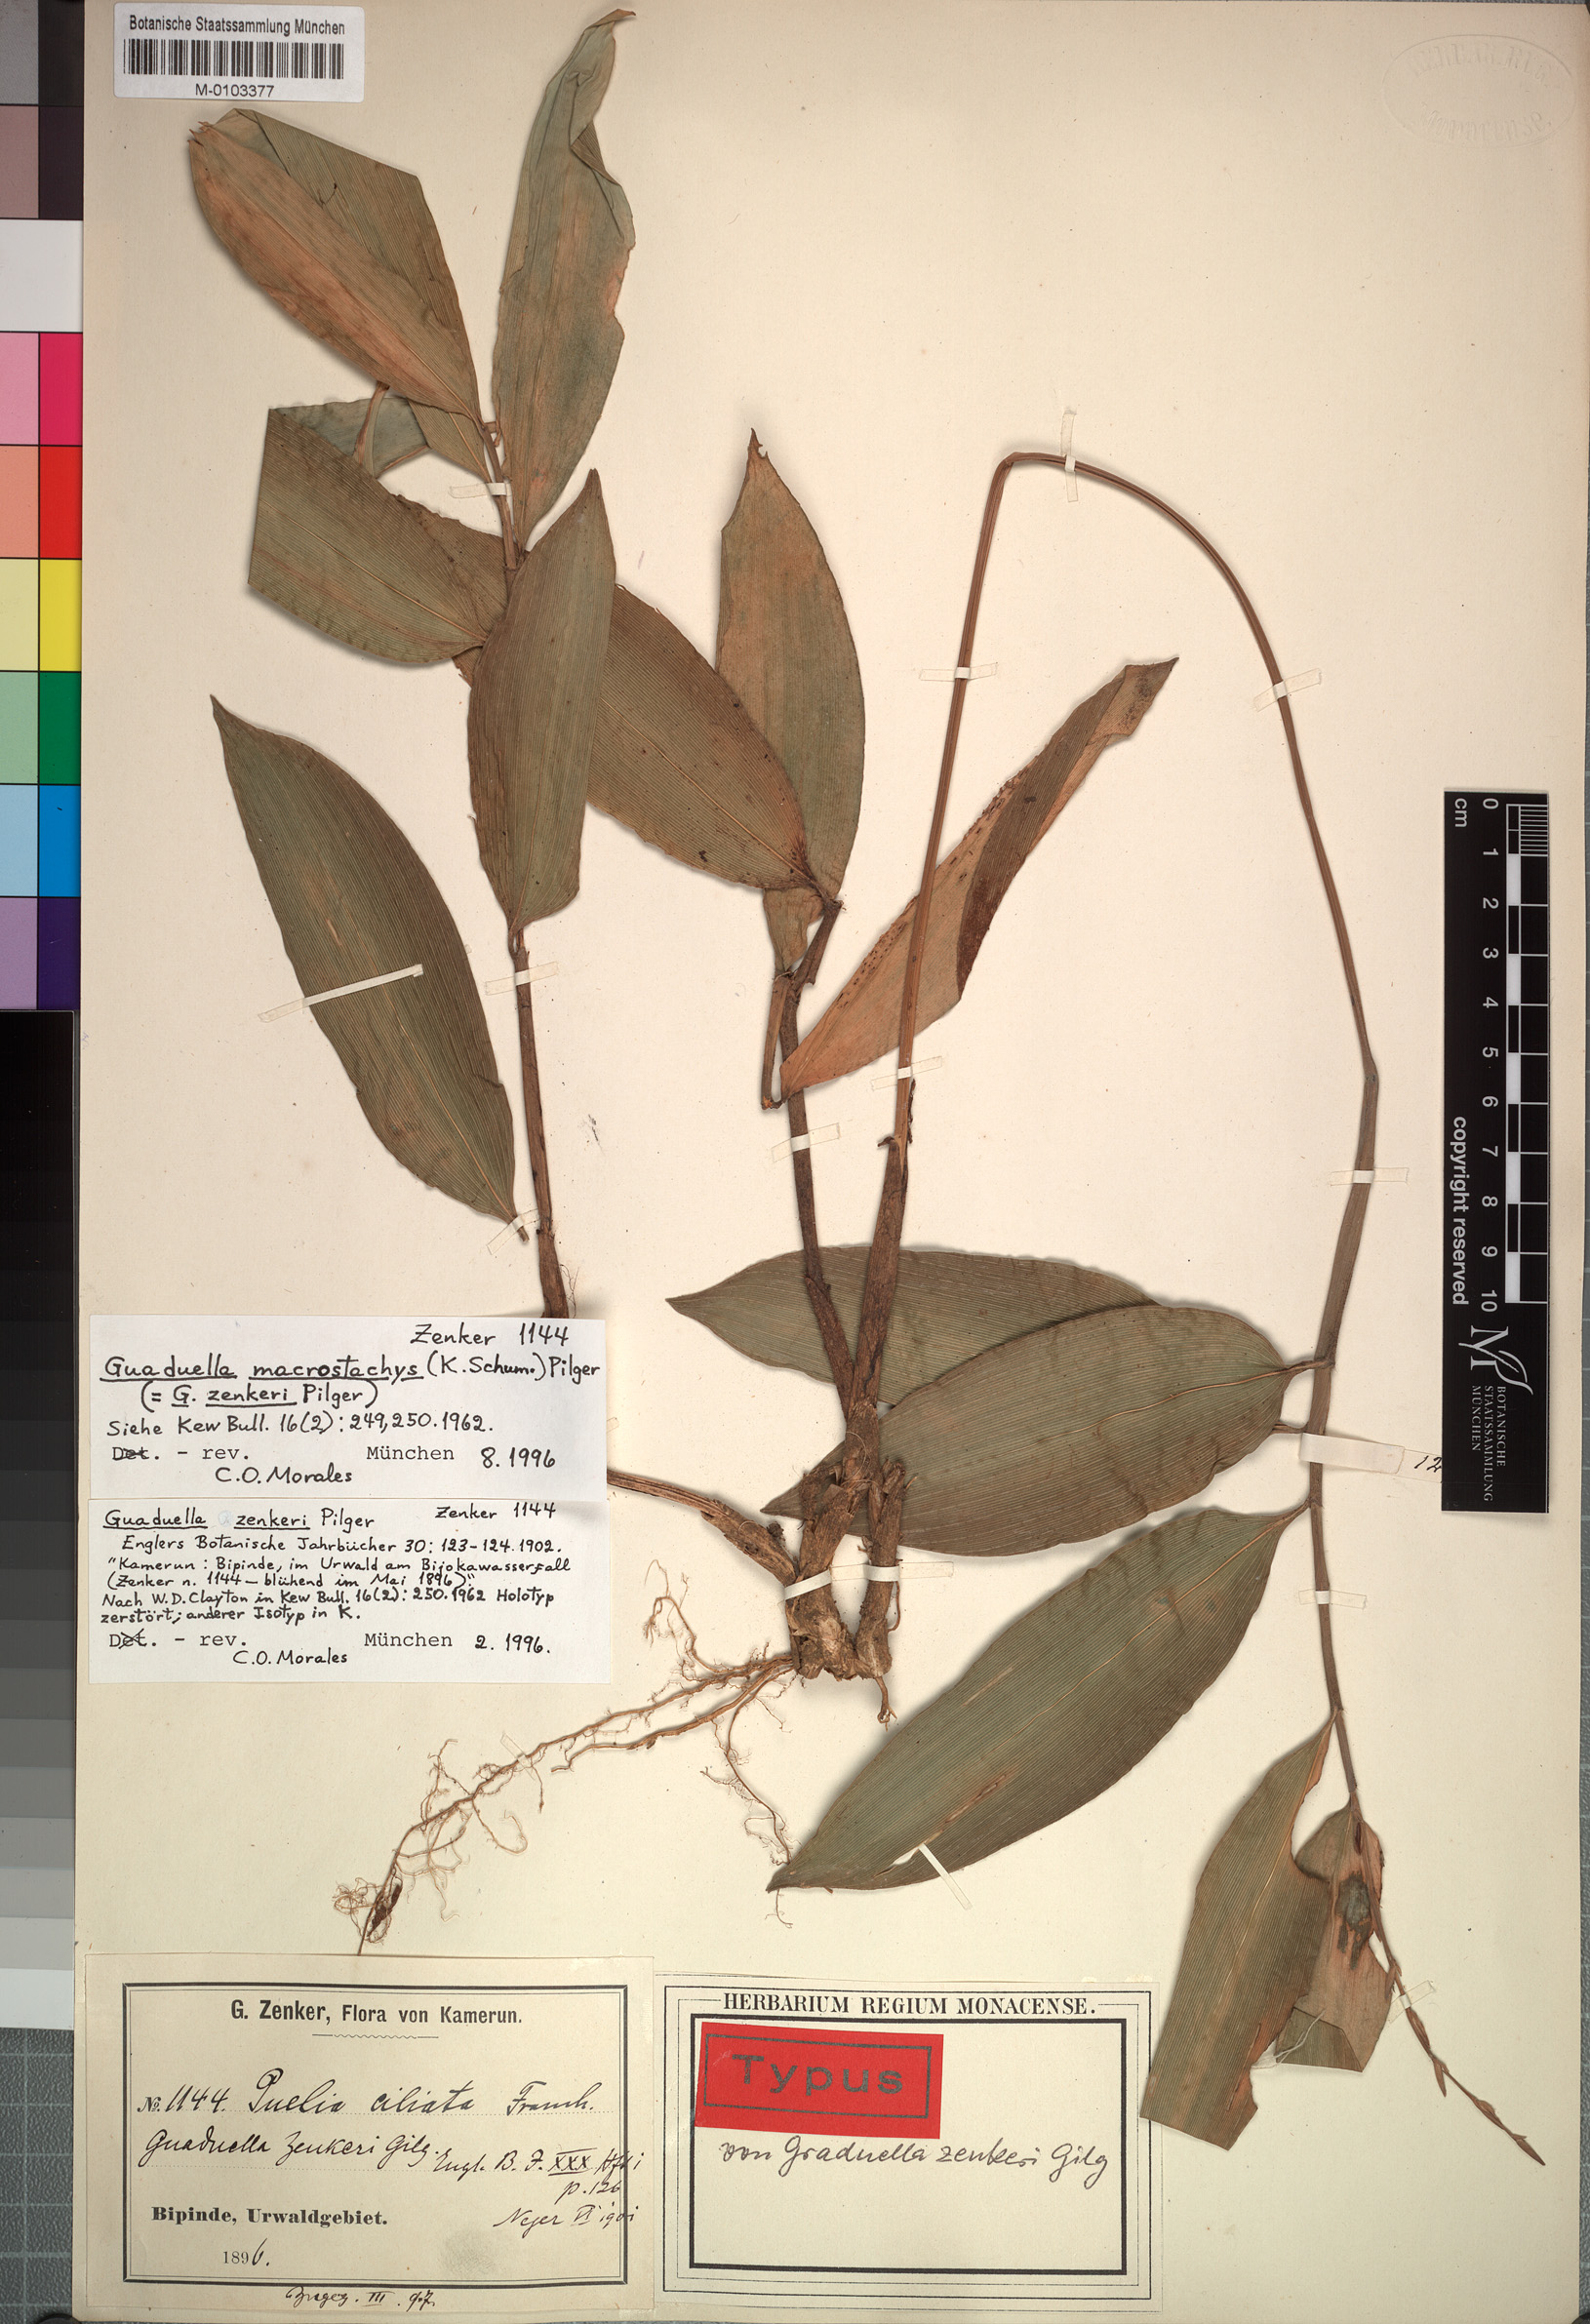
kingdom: Plantae
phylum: Tracheophyta
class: Liliopsida
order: Poales
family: Poaceae
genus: Guaduella
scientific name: Guaduella macrostachys
